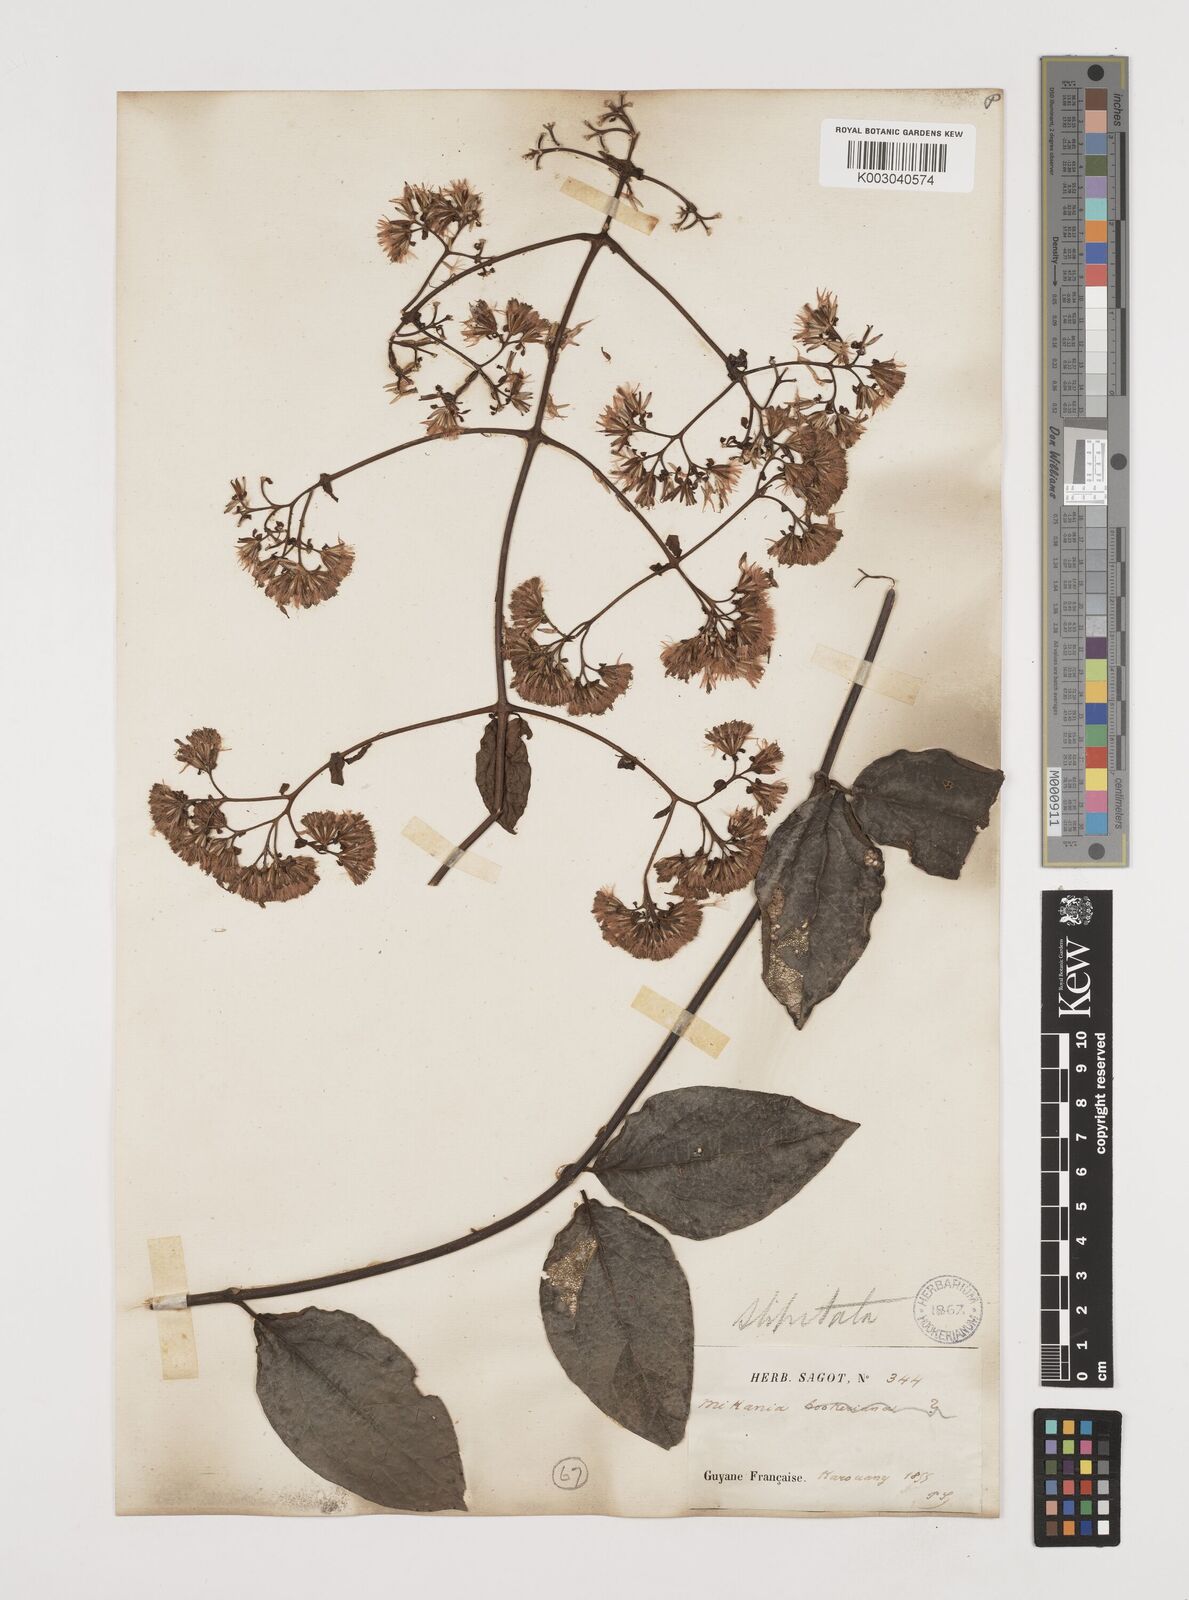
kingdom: Plantae
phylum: Tracheophyta
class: Magnoliopsida
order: Asterales
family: Asteraceae
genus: Mikania
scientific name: Mikania parviflora
